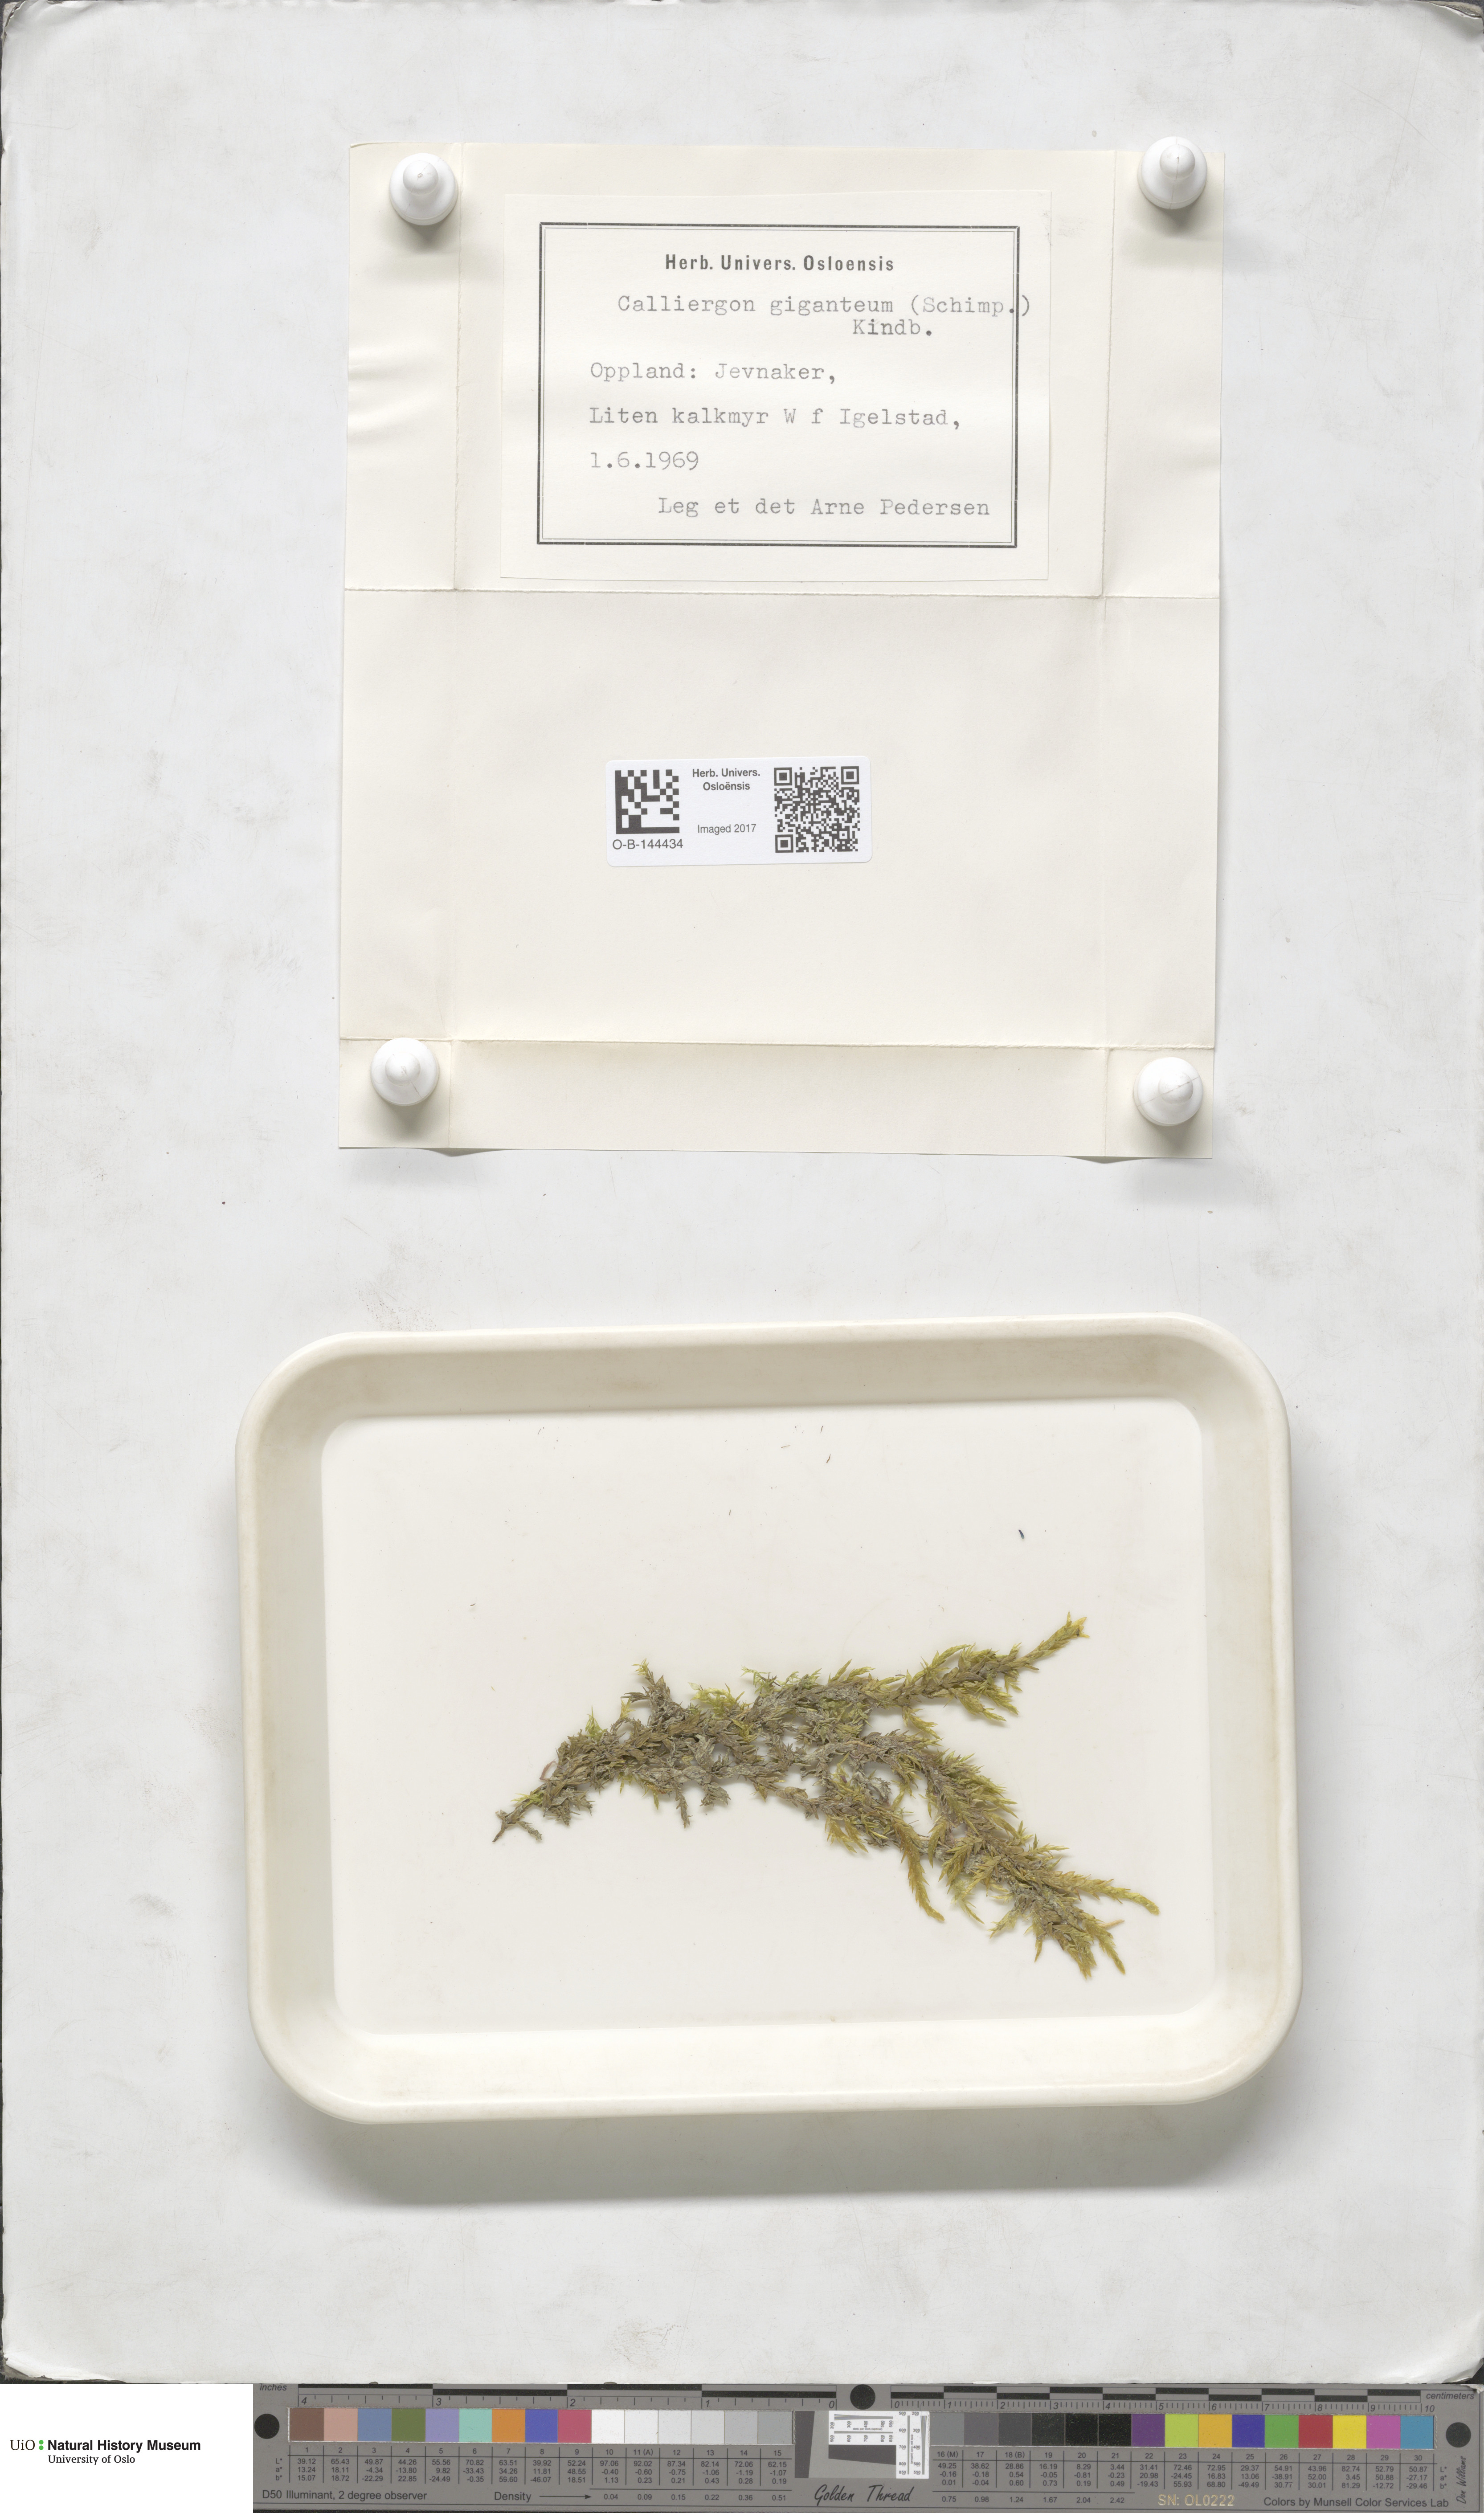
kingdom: Plantae
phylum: Bryophyta
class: Bryopsida
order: Hypnales
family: Calliergonaceae
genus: Calliergon
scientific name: Calliergon giganteum
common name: Giant spear moss
